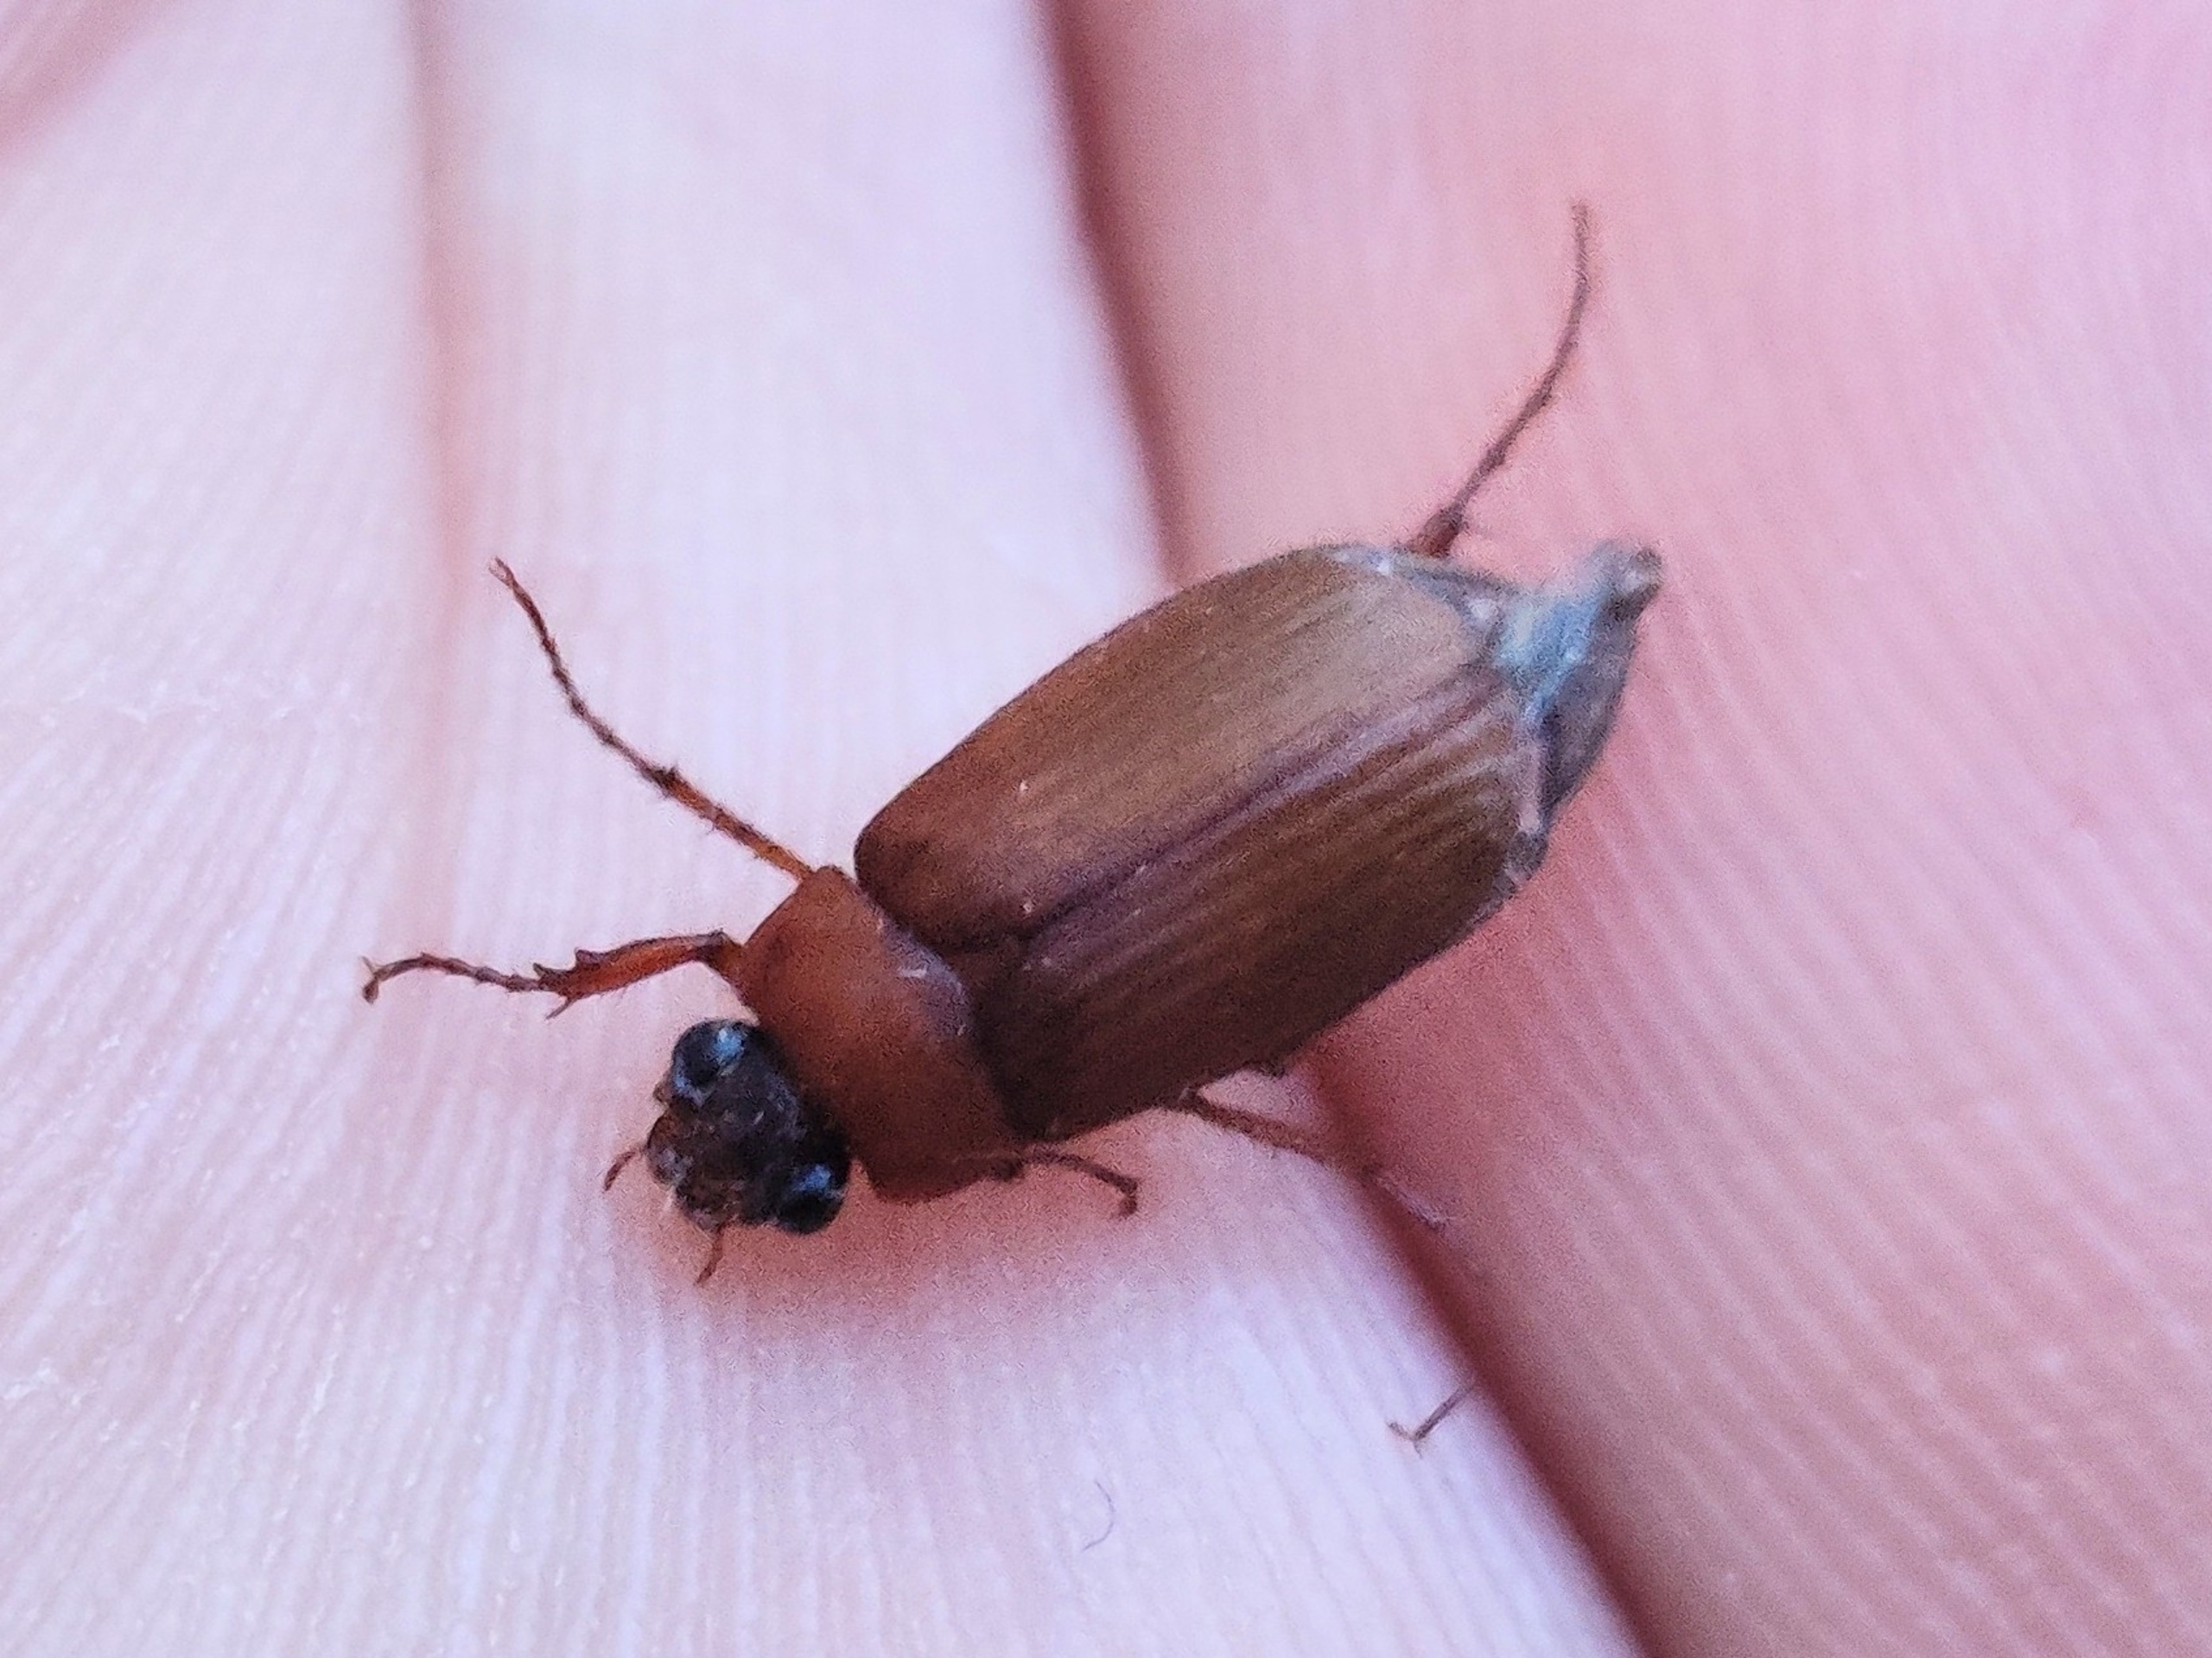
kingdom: Animalia
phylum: Arthropoda
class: Insecta
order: Coleoptera
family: Scarabaeidae
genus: Serica
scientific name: Serica brunnea
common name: Natoldenborre
